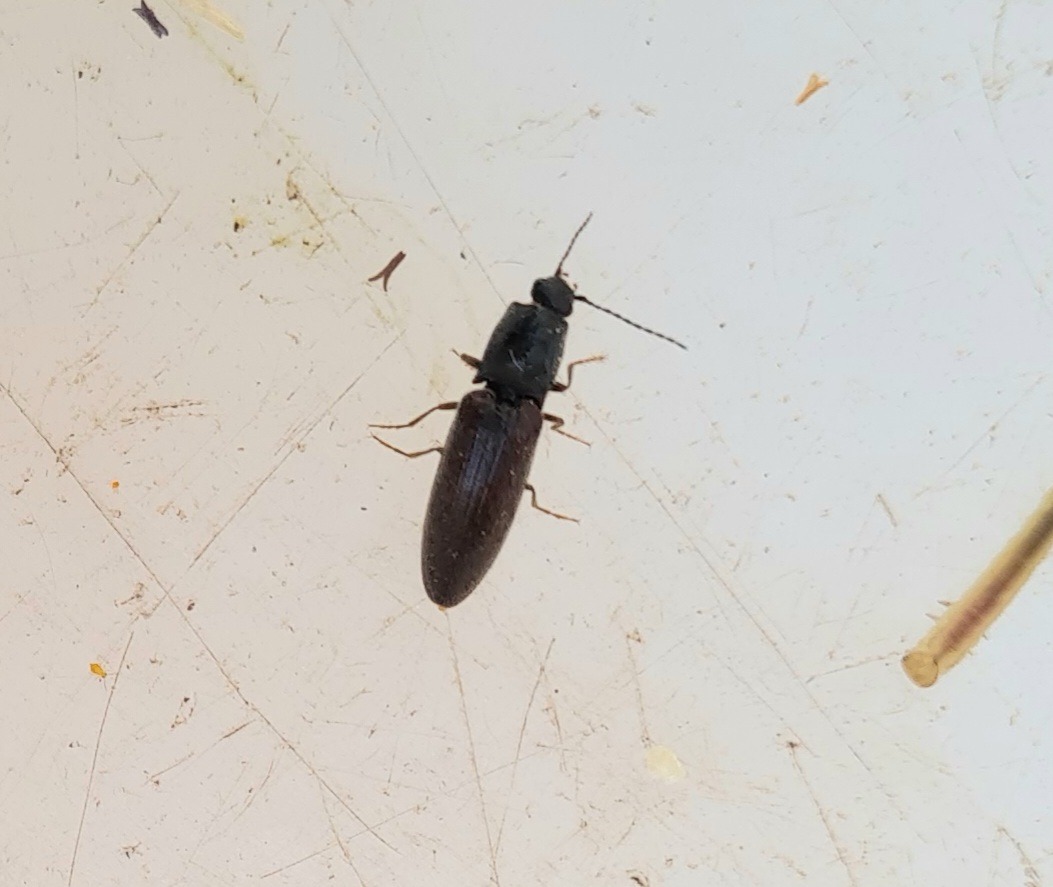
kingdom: Animalia
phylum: Arthropoda
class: Insecta
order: Coleoptera
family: Elateridae
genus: Athous
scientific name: Athous haemorrhoidalis
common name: Rødhalet busksmælder
